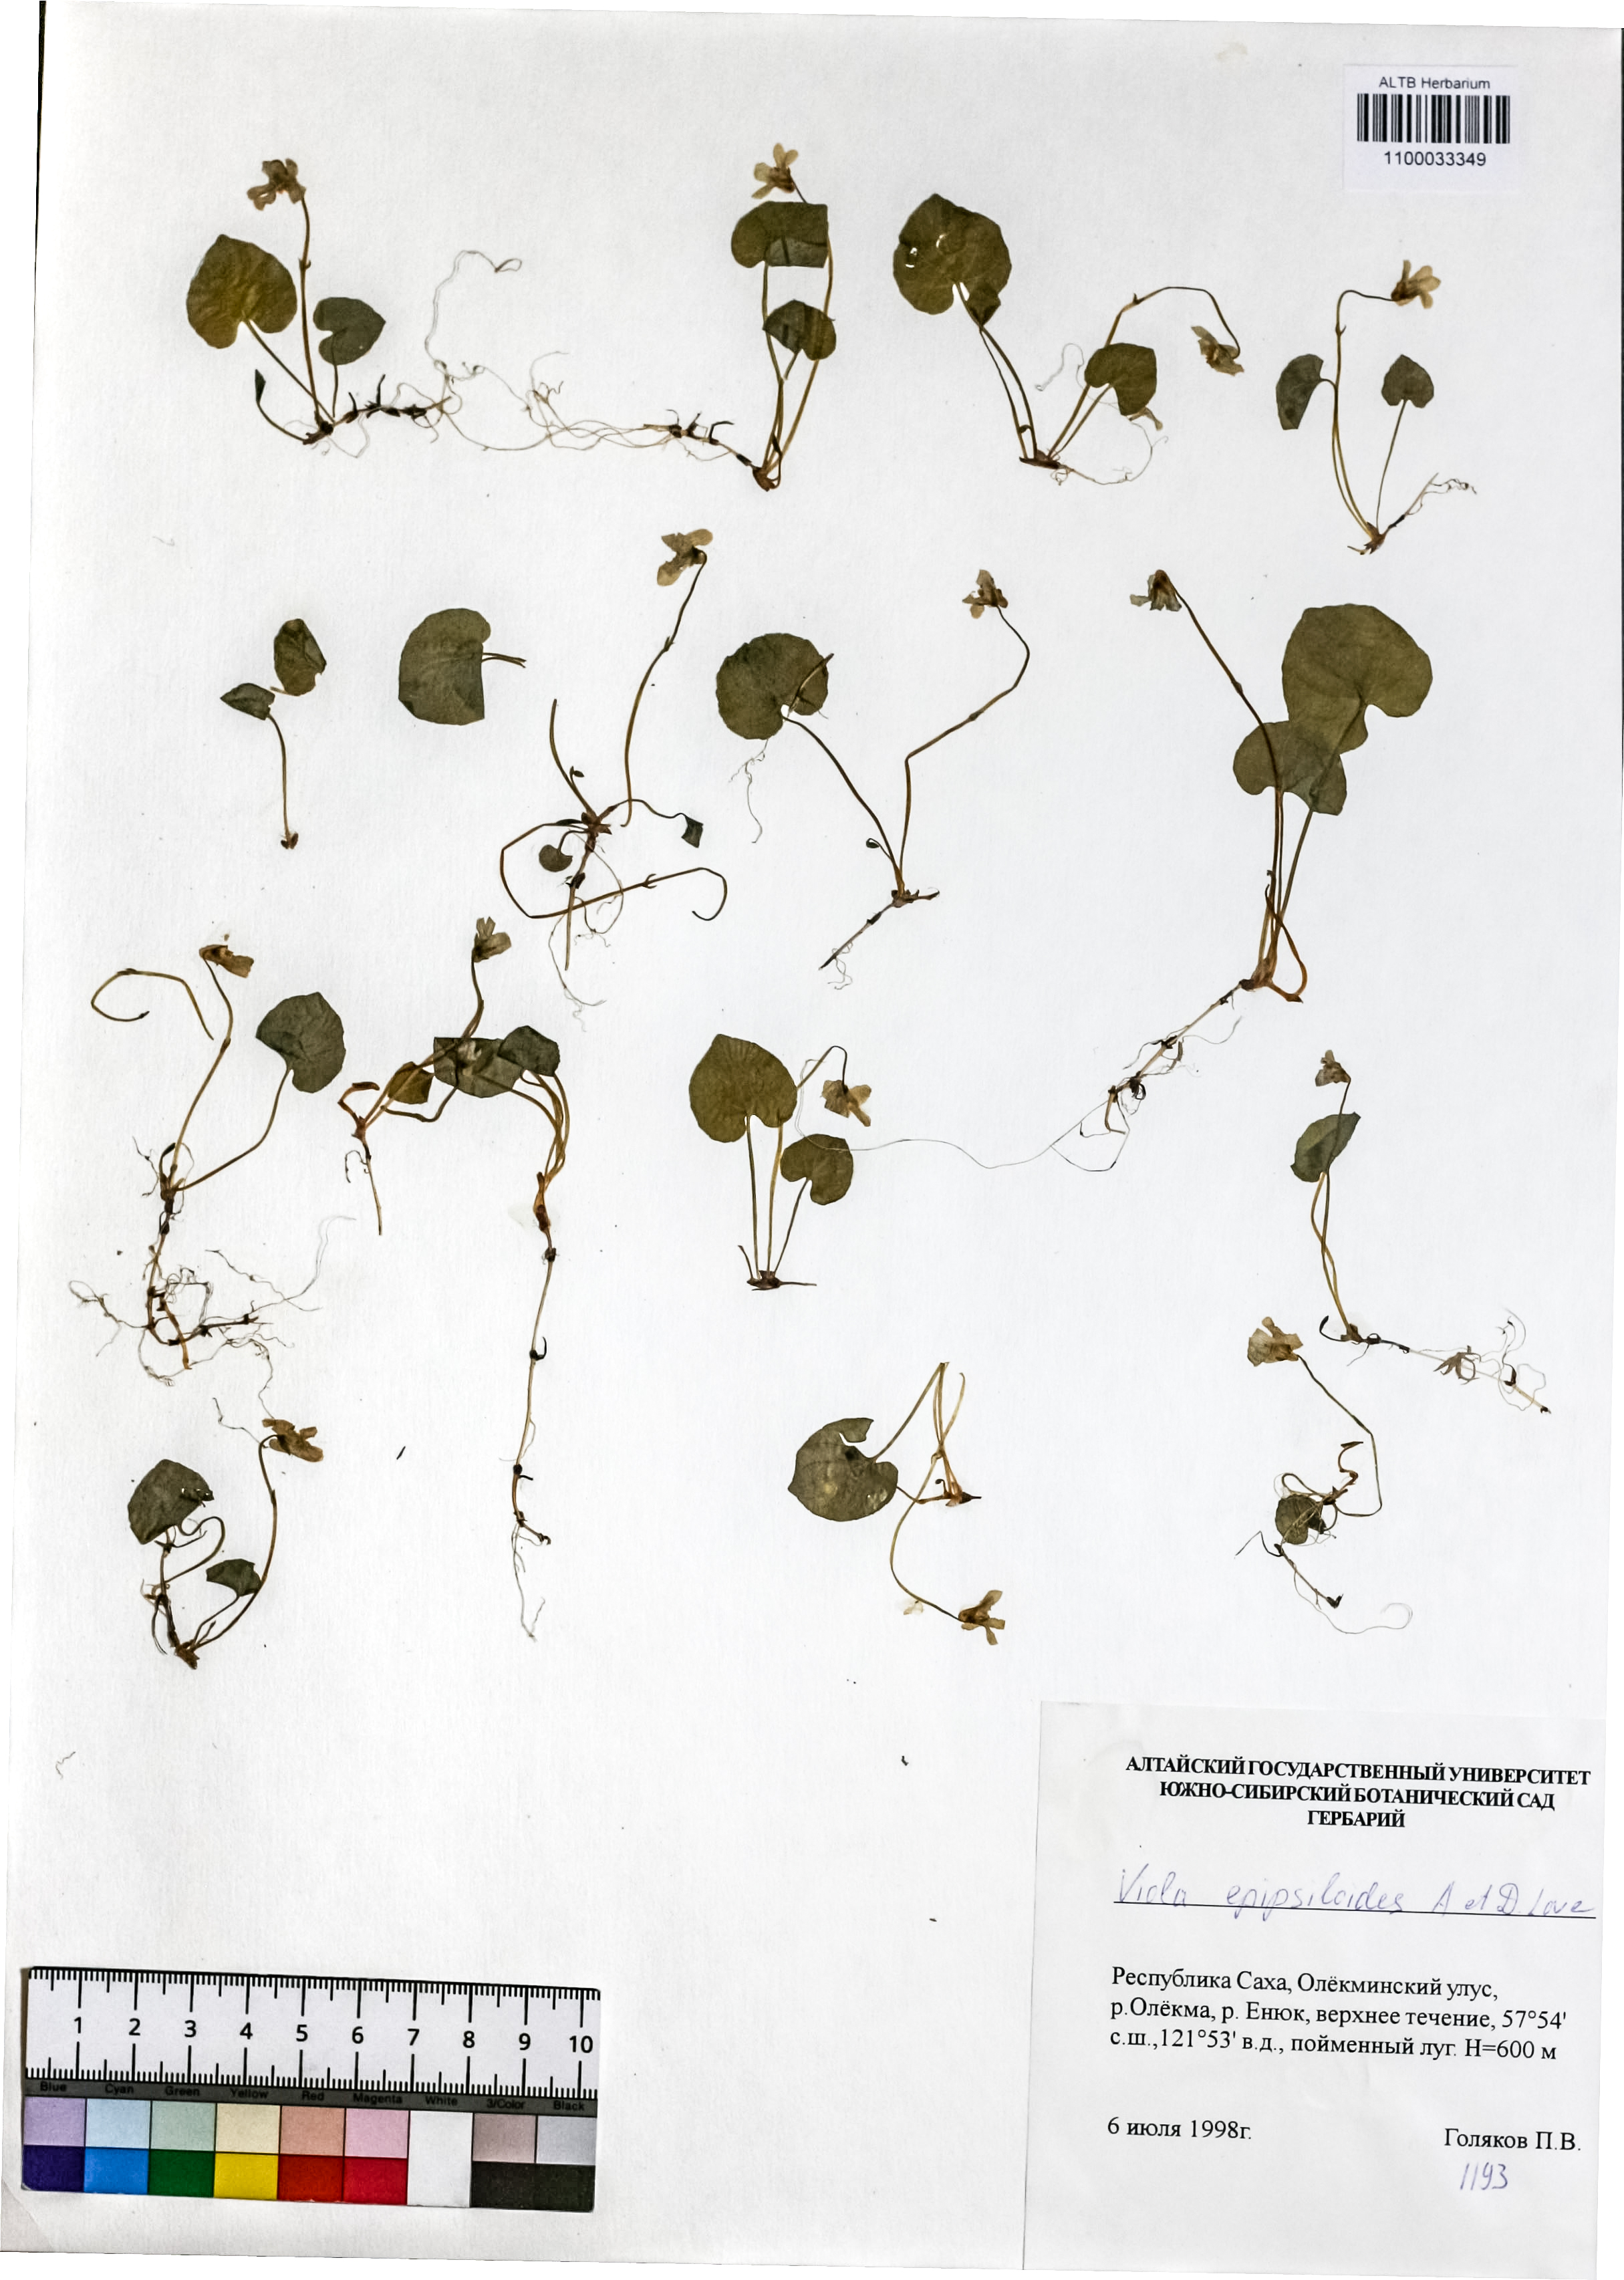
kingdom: Plantae
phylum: Tracheophyta
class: Magnoliopsida
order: Malpighiales
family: Violaceae
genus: Viola
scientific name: Viola epipsila
